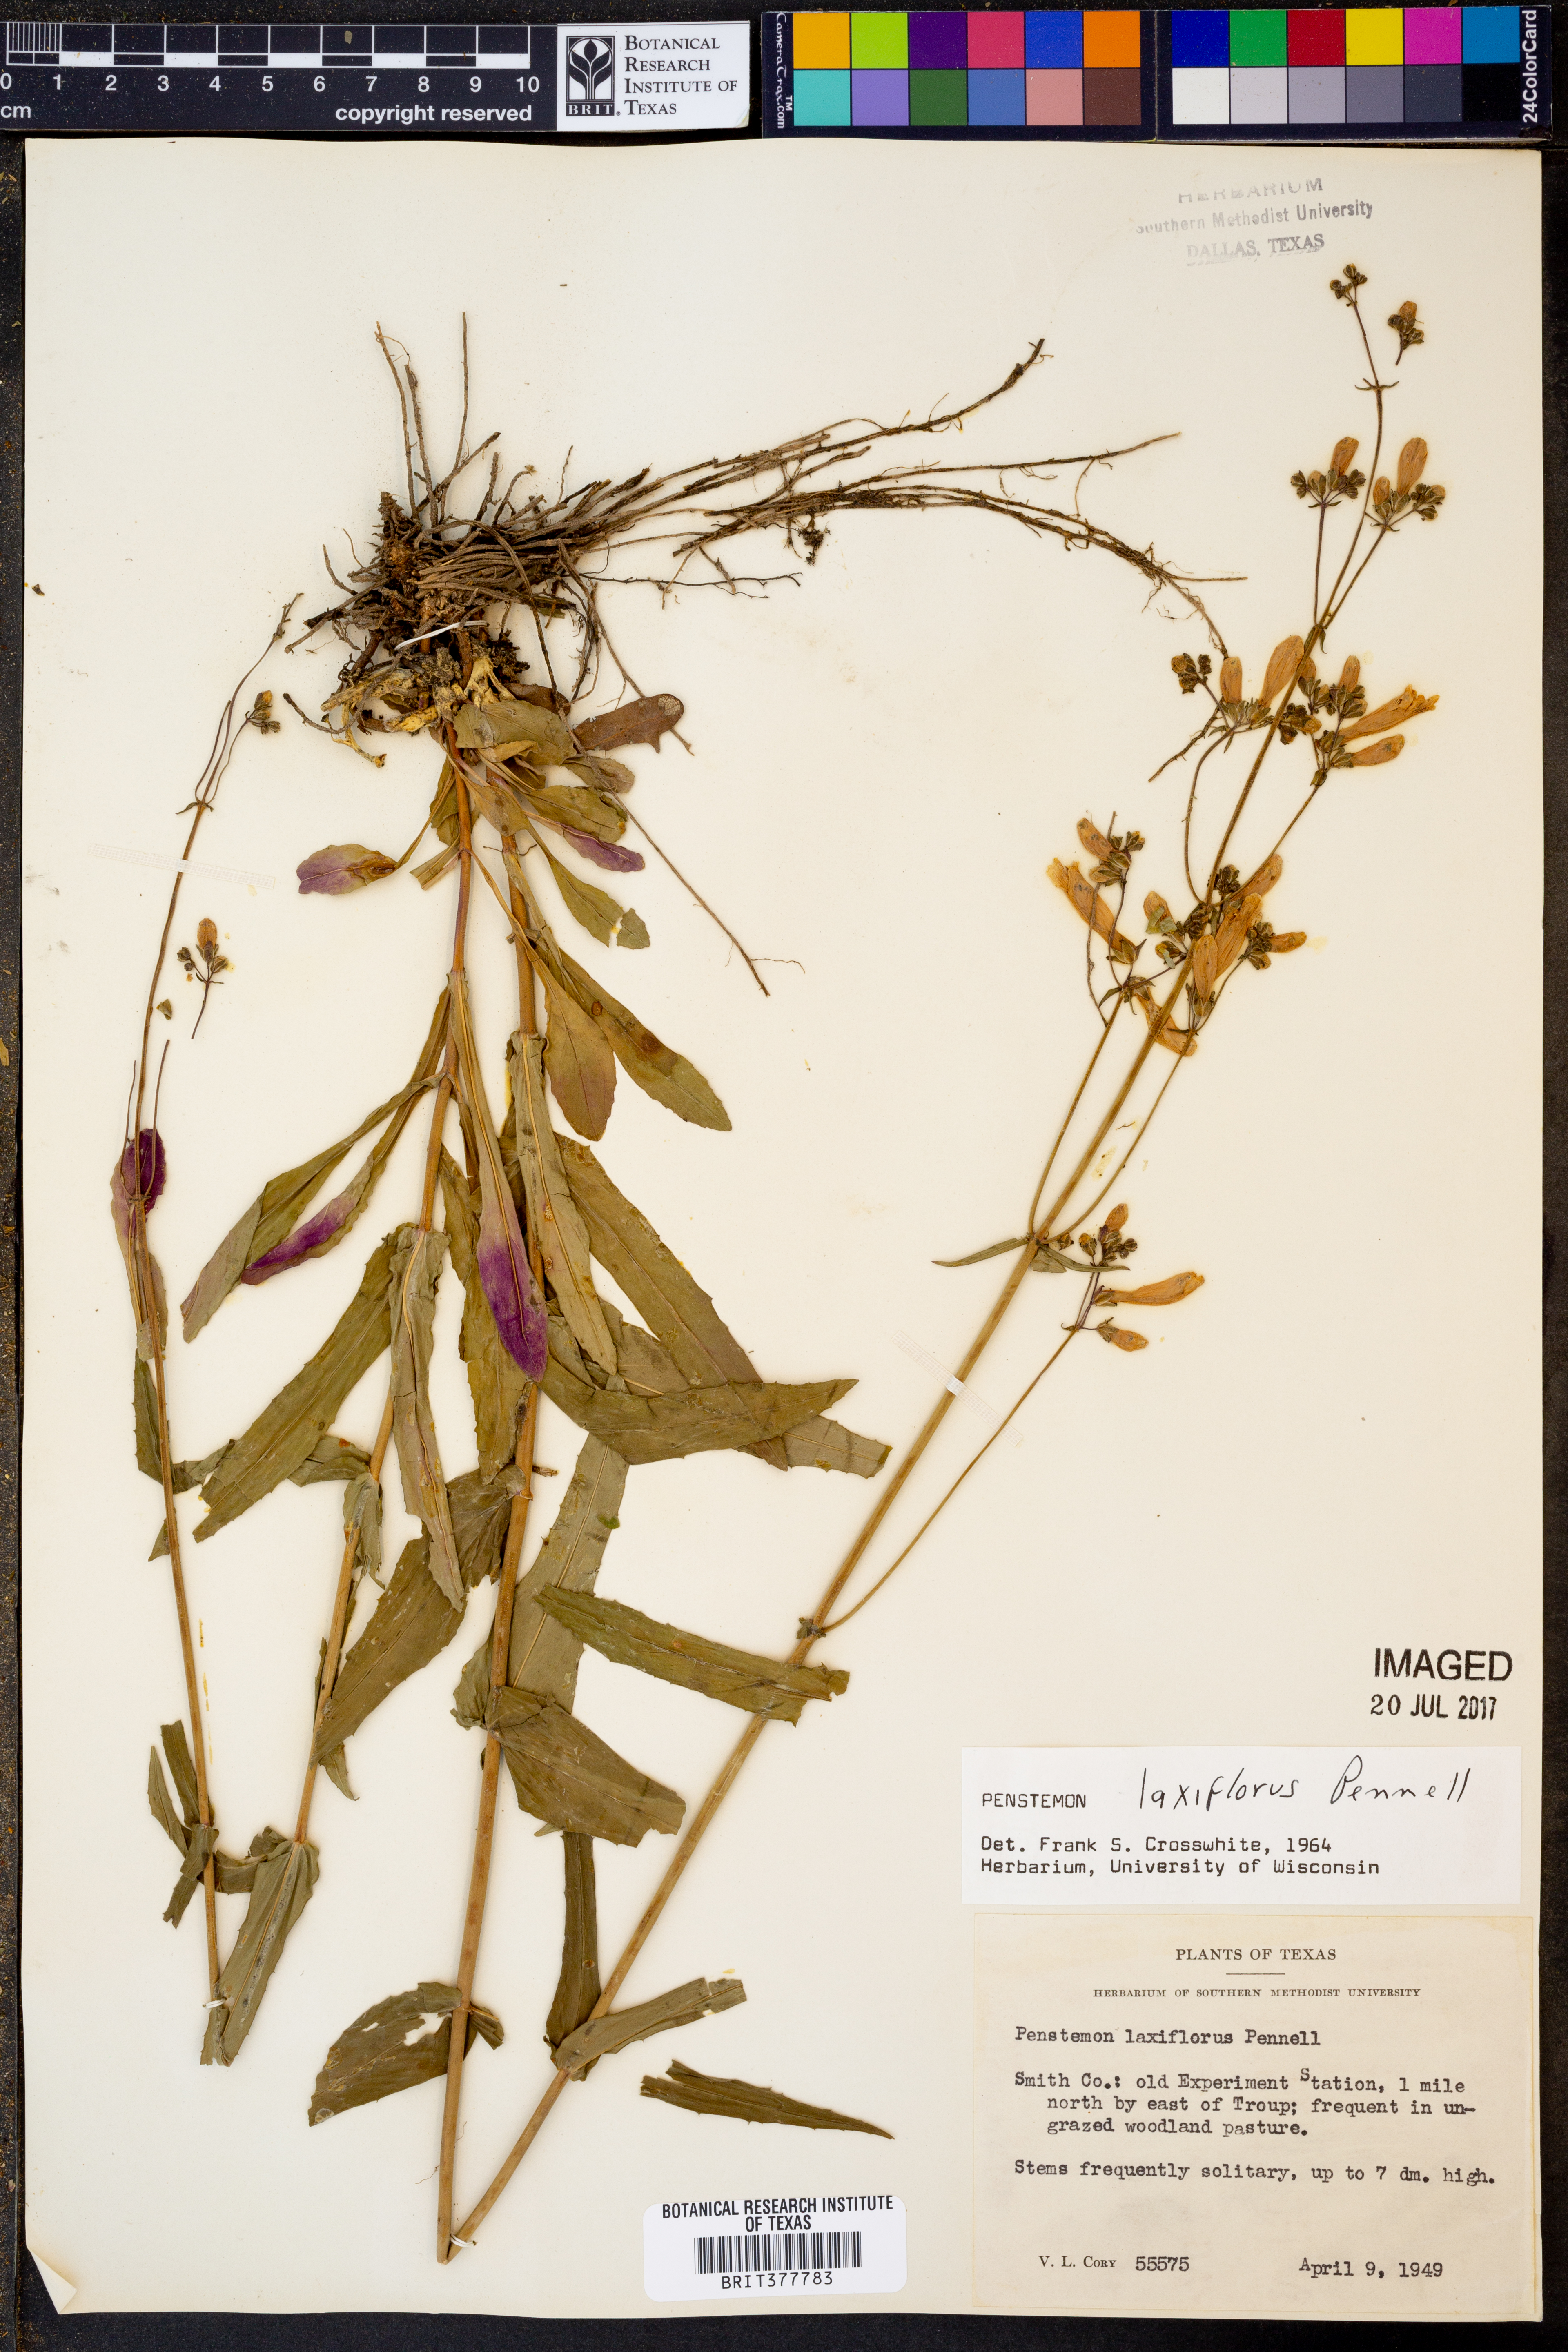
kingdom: Plantae
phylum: Tracheophyta
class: Magnoliopsida
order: Lamiales
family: Plantaginaceae
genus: Penstemon
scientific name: Penstemon laxiflorus
